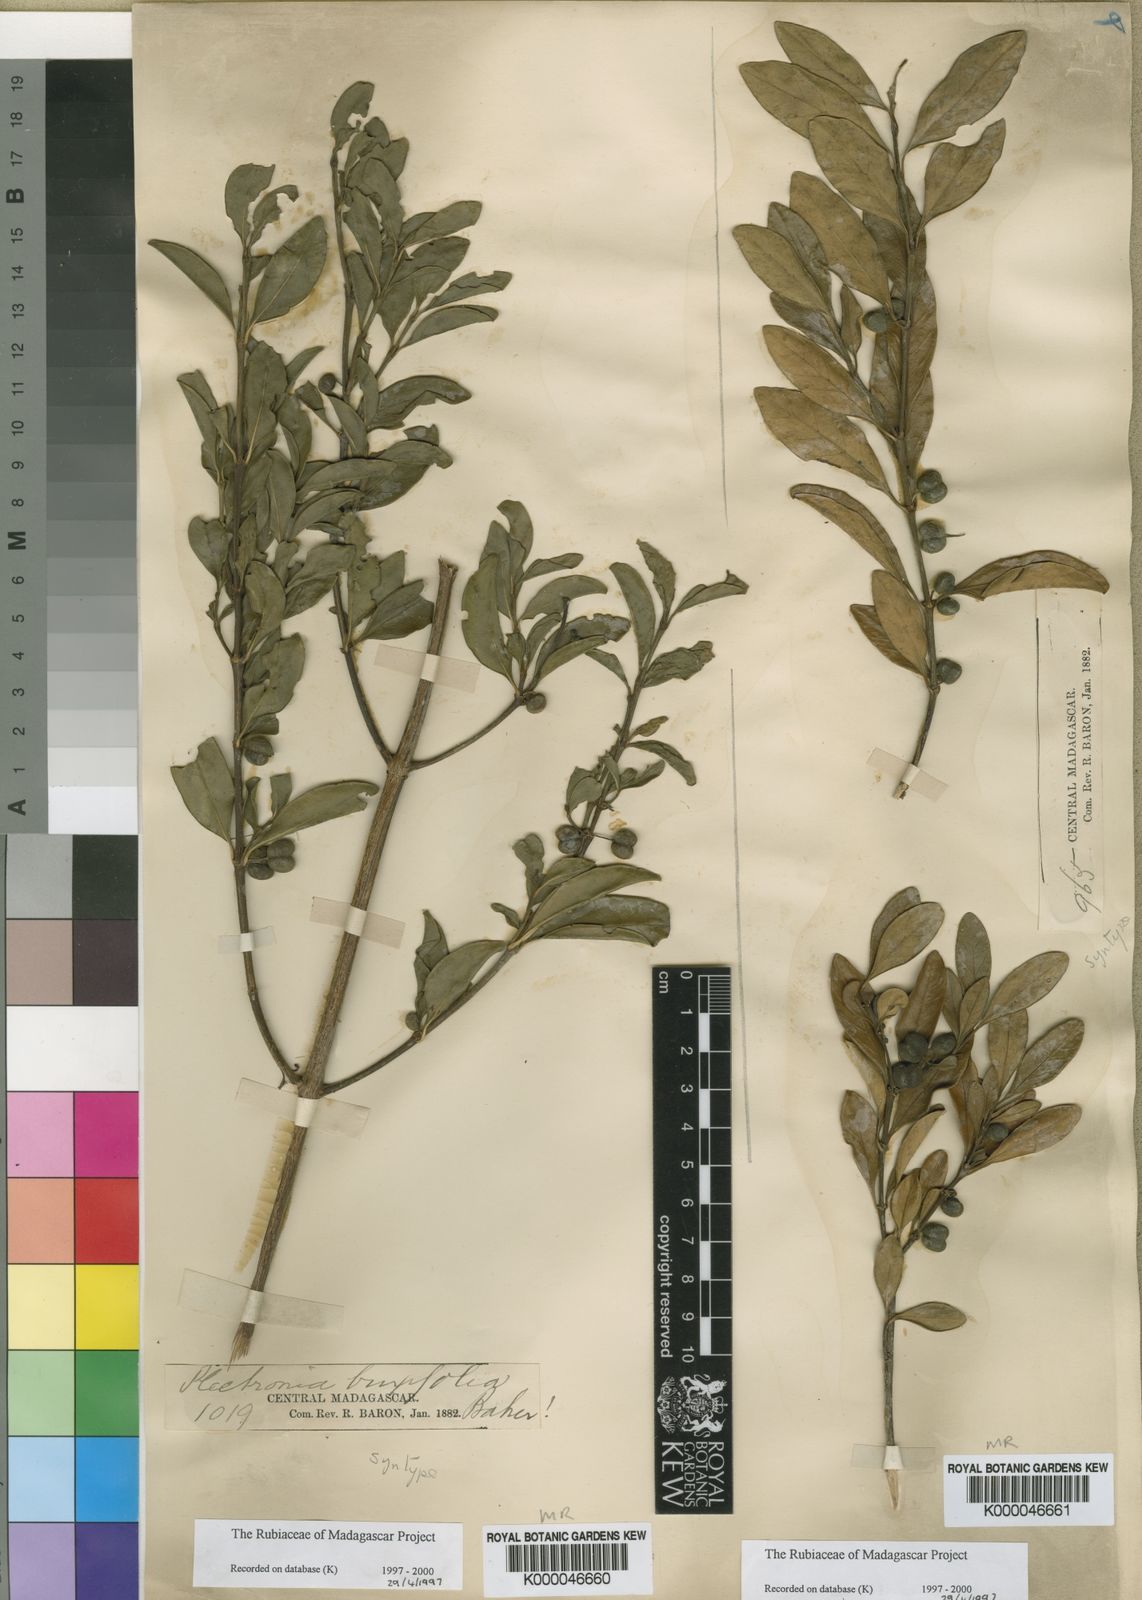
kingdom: Plantae
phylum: Tracheophyta
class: Magnoliopsida
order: Gentianales
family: Rubiaceae
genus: Peponidium
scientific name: Peponidium
